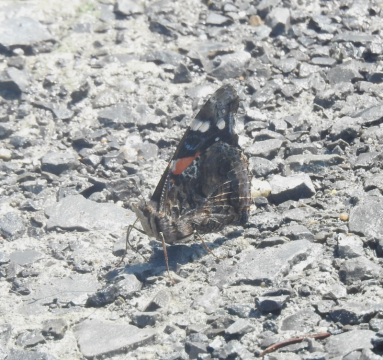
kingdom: Animalia
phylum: Arthropoda
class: Insecta
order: Lepidoptera
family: Nymphalidae
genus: Vanessa
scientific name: Vanessa atalanta
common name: Red Admiral
